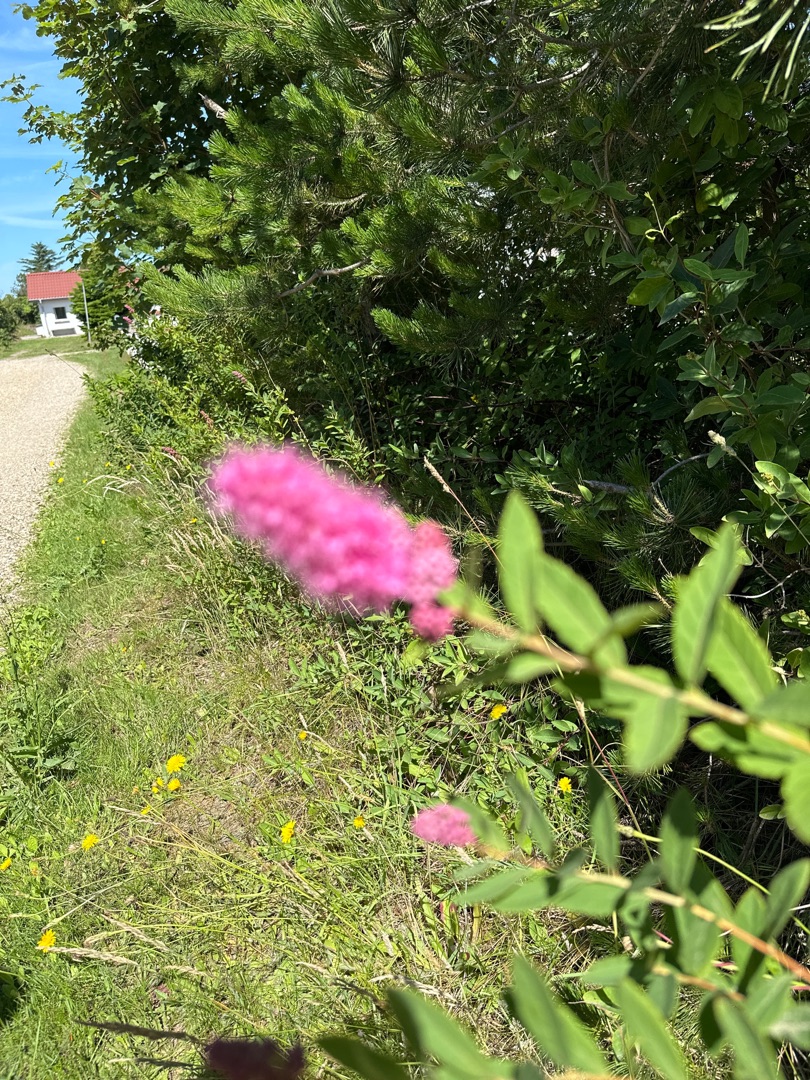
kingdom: Plantae
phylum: Tracheophyta
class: Magnoliopsida
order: Rosales
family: Rosaceae
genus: Spiraea
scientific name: Spiraea
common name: Spiræaslægten
